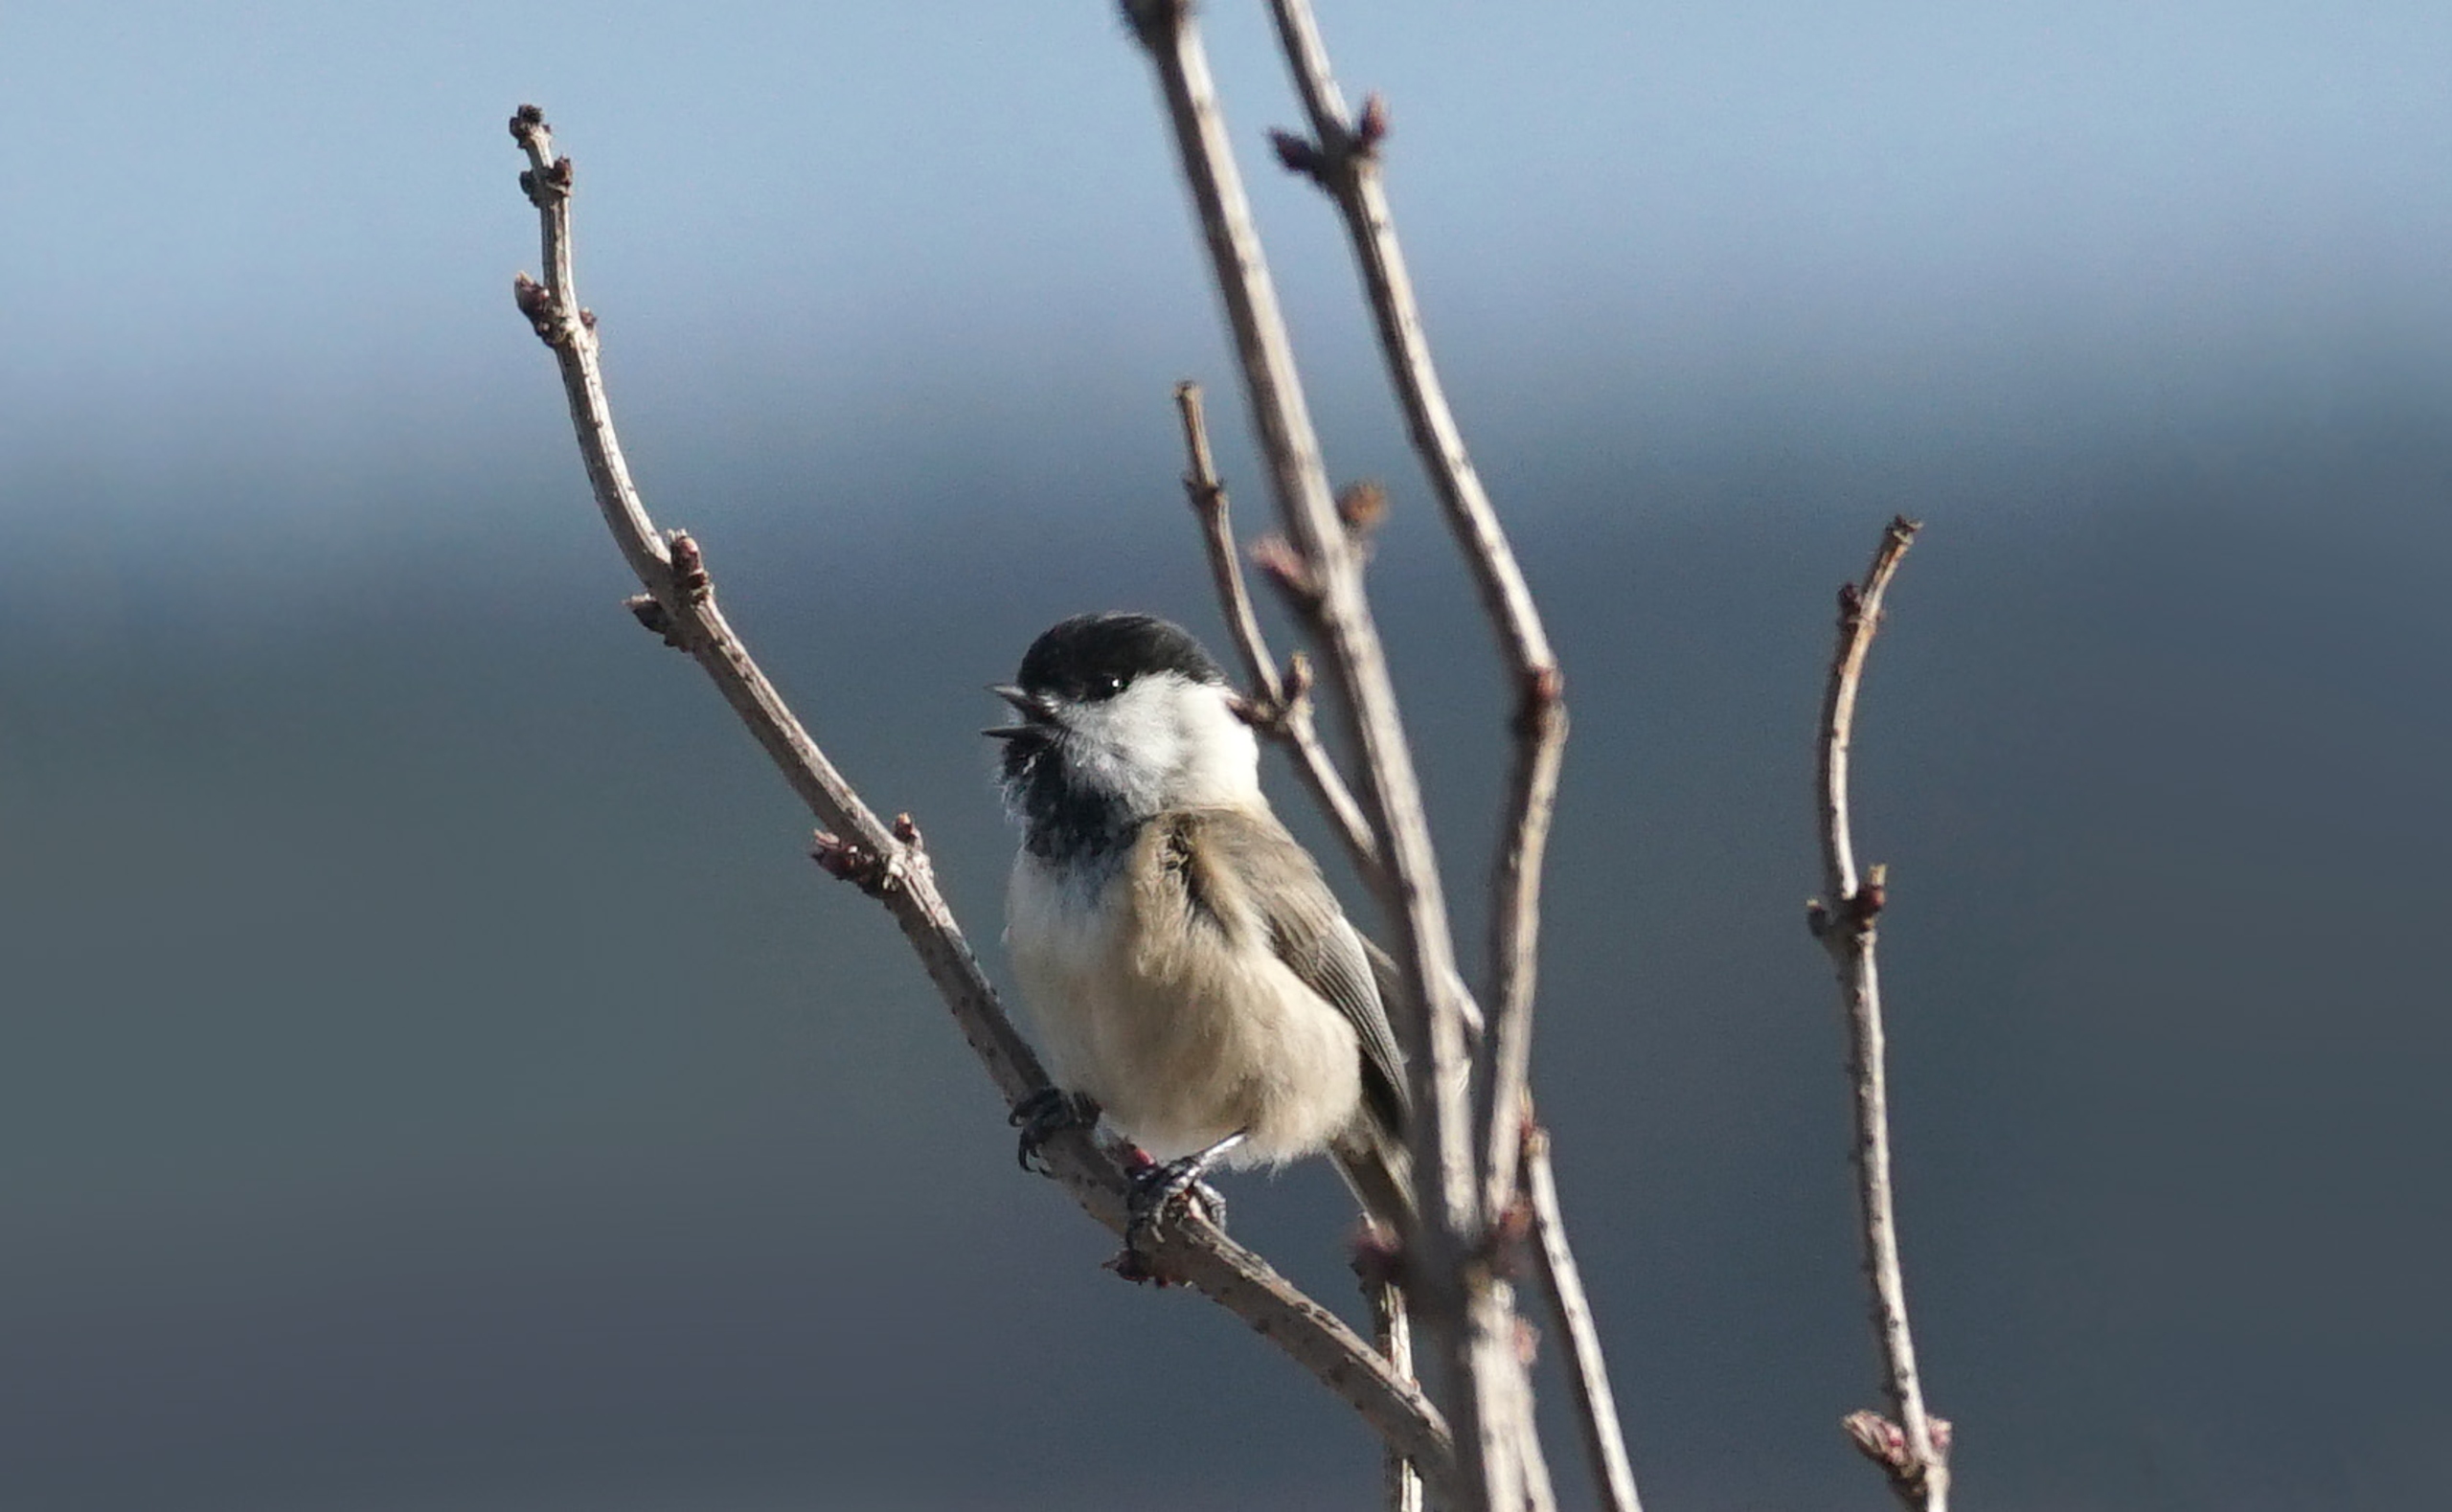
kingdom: Animalia
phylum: Chordata
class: Aves
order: Passeriformes
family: Paridae
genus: Poecile
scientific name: Poecile montanus
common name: Fyrremejse
